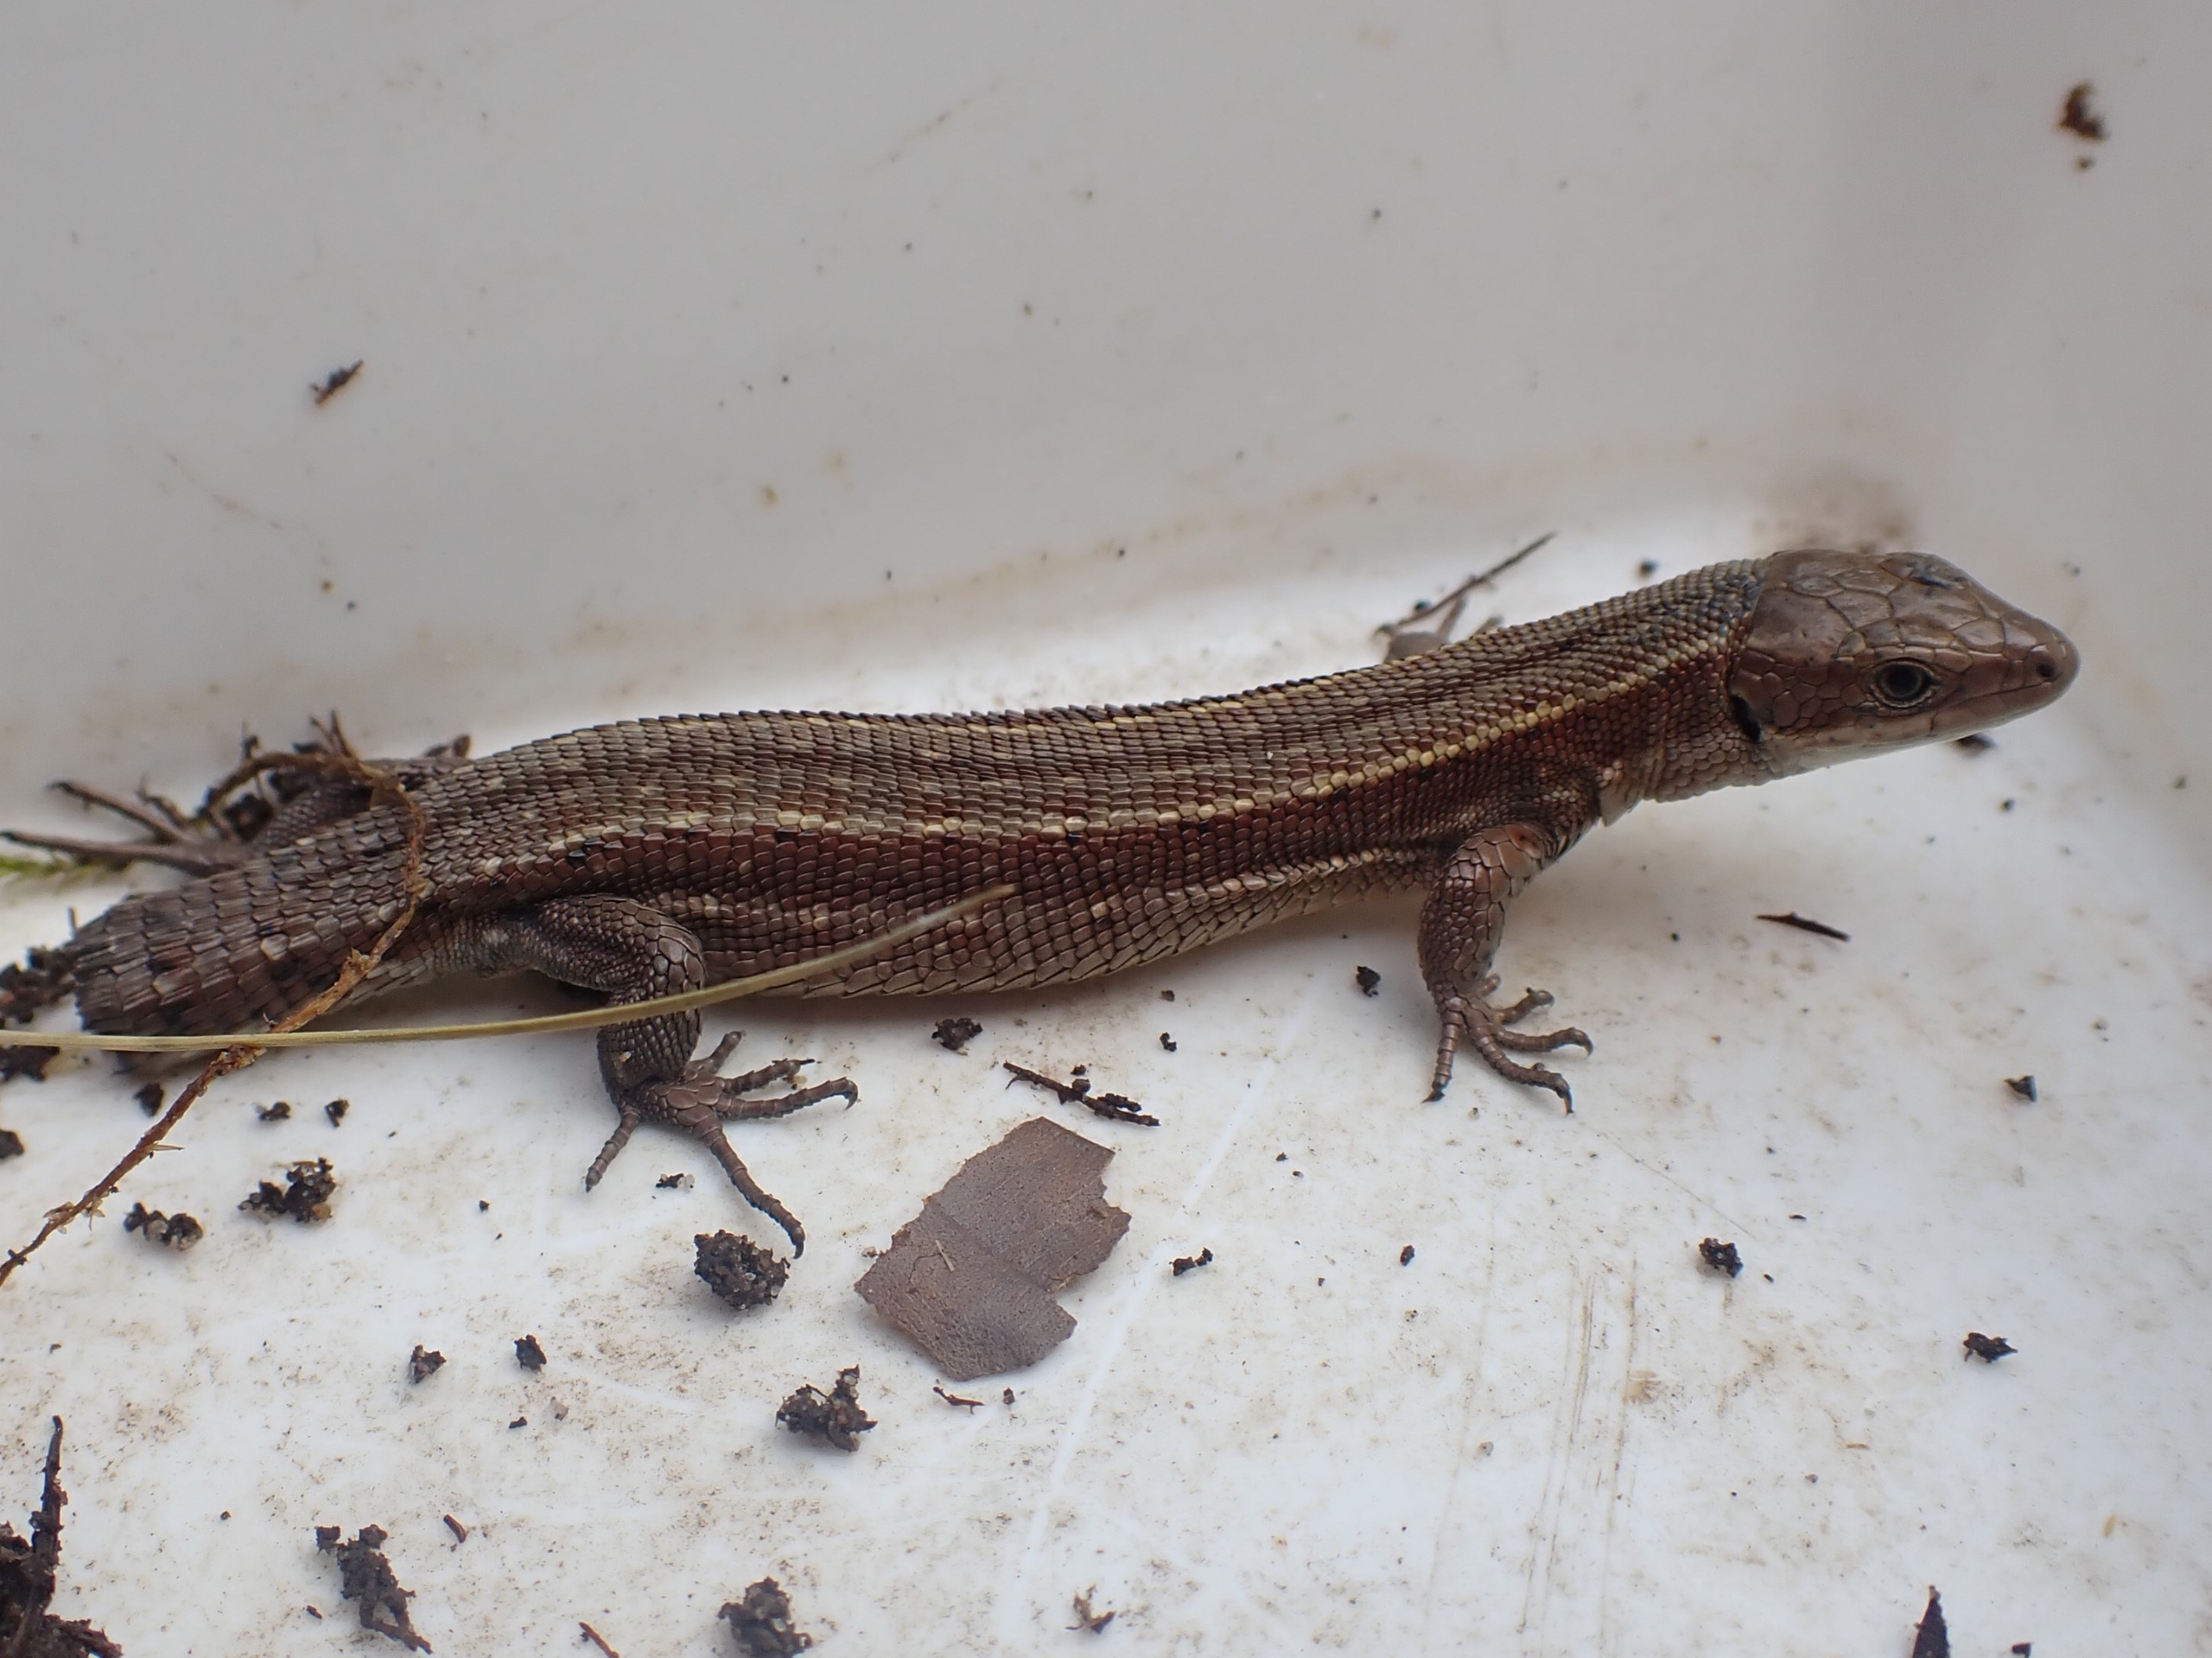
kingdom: Animalia
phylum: Chordata
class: Squamata
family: Lacertidae
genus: Zootoca
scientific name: Zootoca vivipara
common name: Skovfirben
